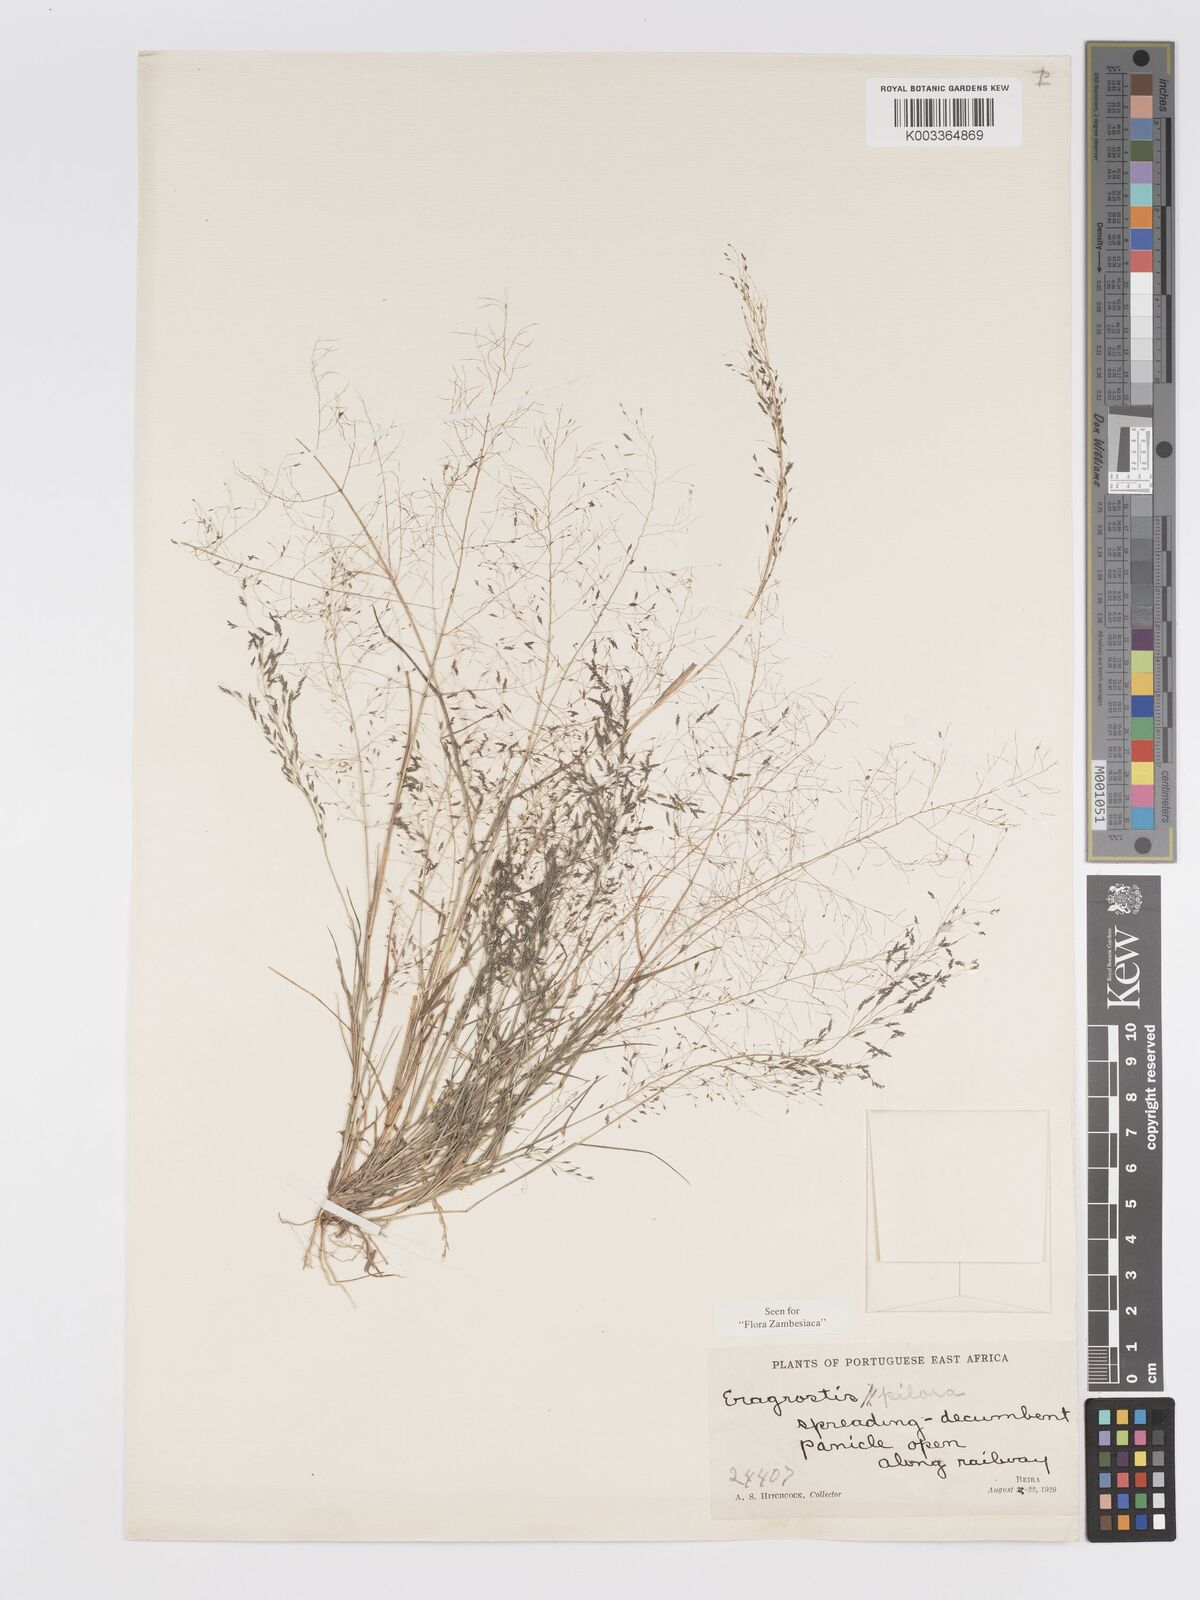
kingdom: Plantae
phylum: Tracheophyta
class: Liliopsida
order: Poales
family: Poaceae
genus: Eragrostis
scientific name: Eragrostis pilosa
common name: Indian lovegrass
